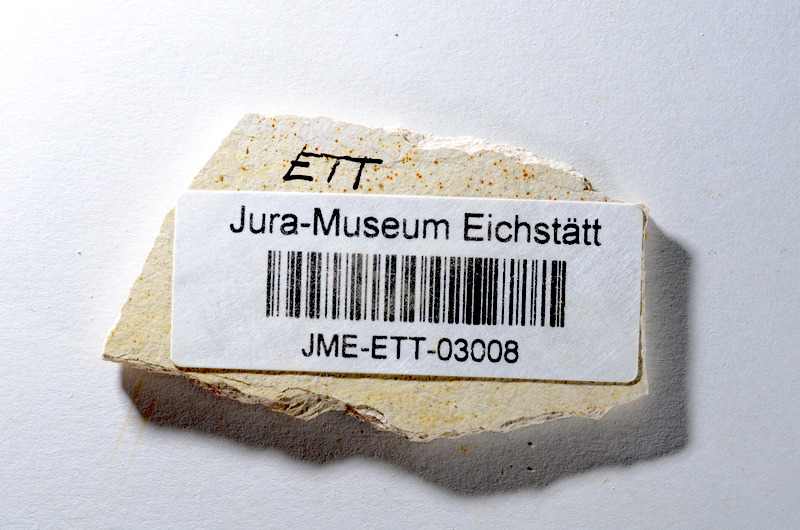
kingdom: Animalia
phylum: Chordata
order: Salmoniformes
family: Orthogonikleithridae
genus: Orthogonikleithrus
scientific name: Orthogonikleithrus hoelli
